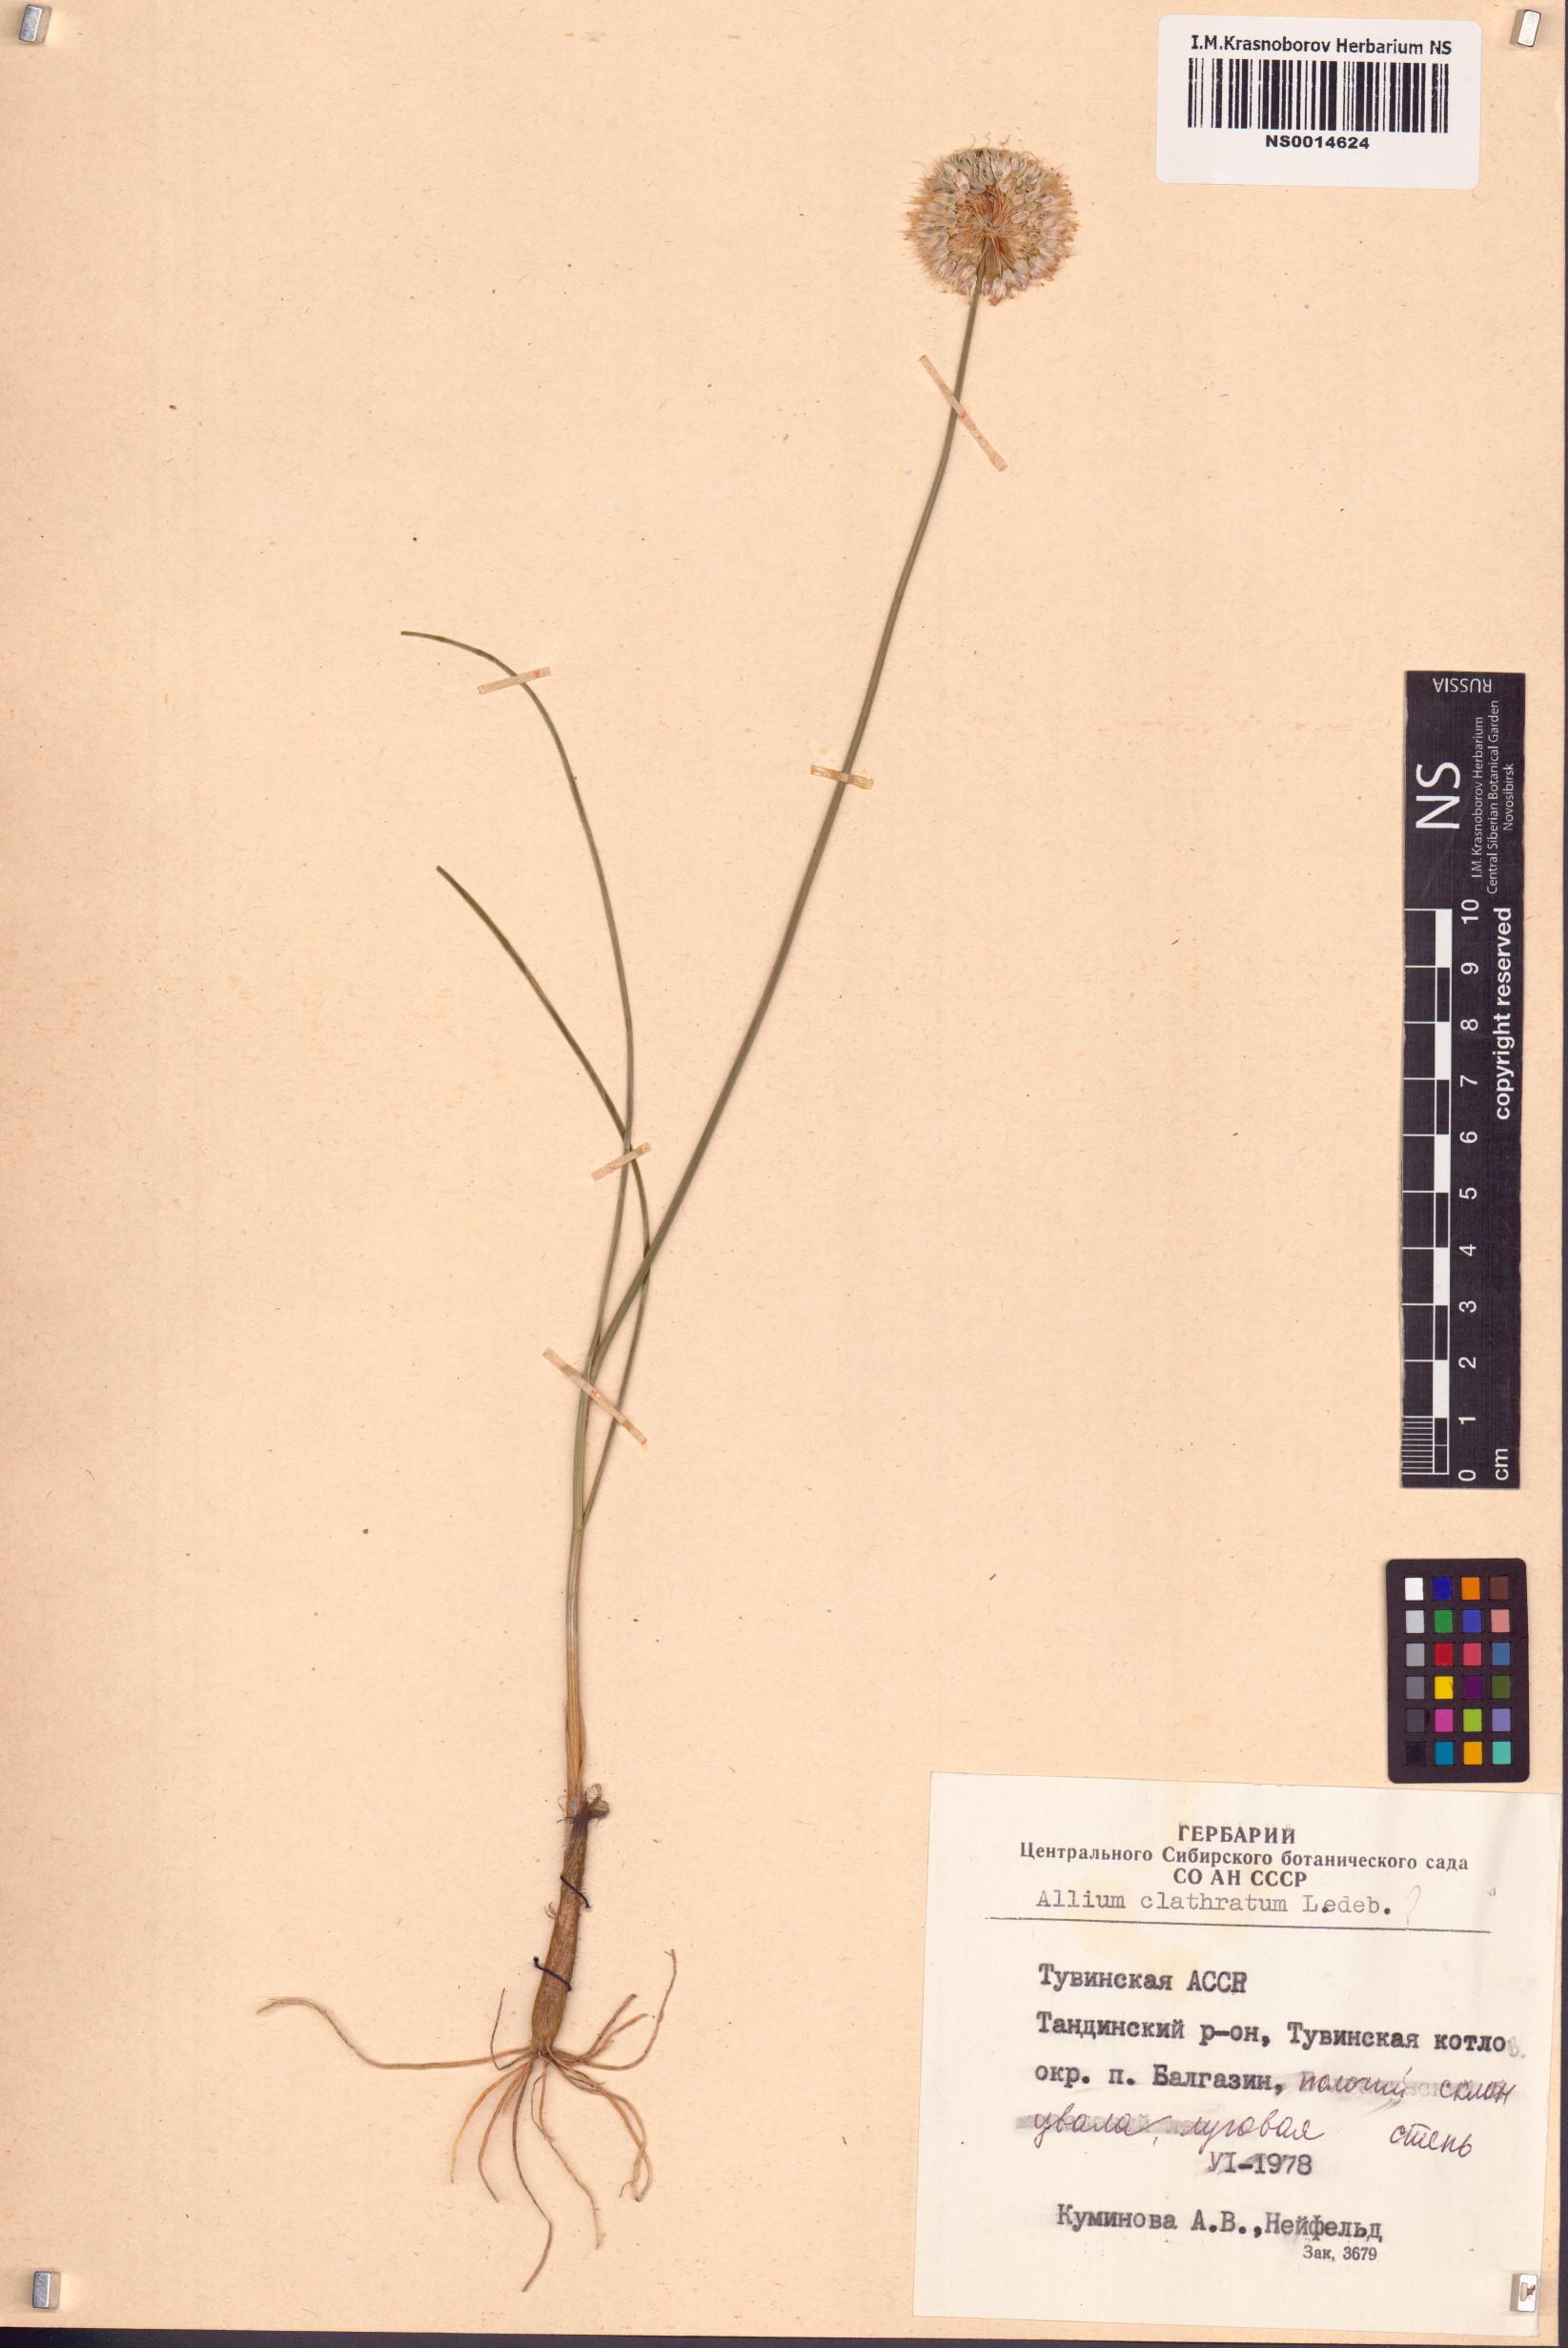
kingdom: Plantae
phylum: Tracheophyta
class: Liliopsida
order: Asparagales
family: Amaryllidaceae
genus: Allium
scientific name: Allium clathratum
